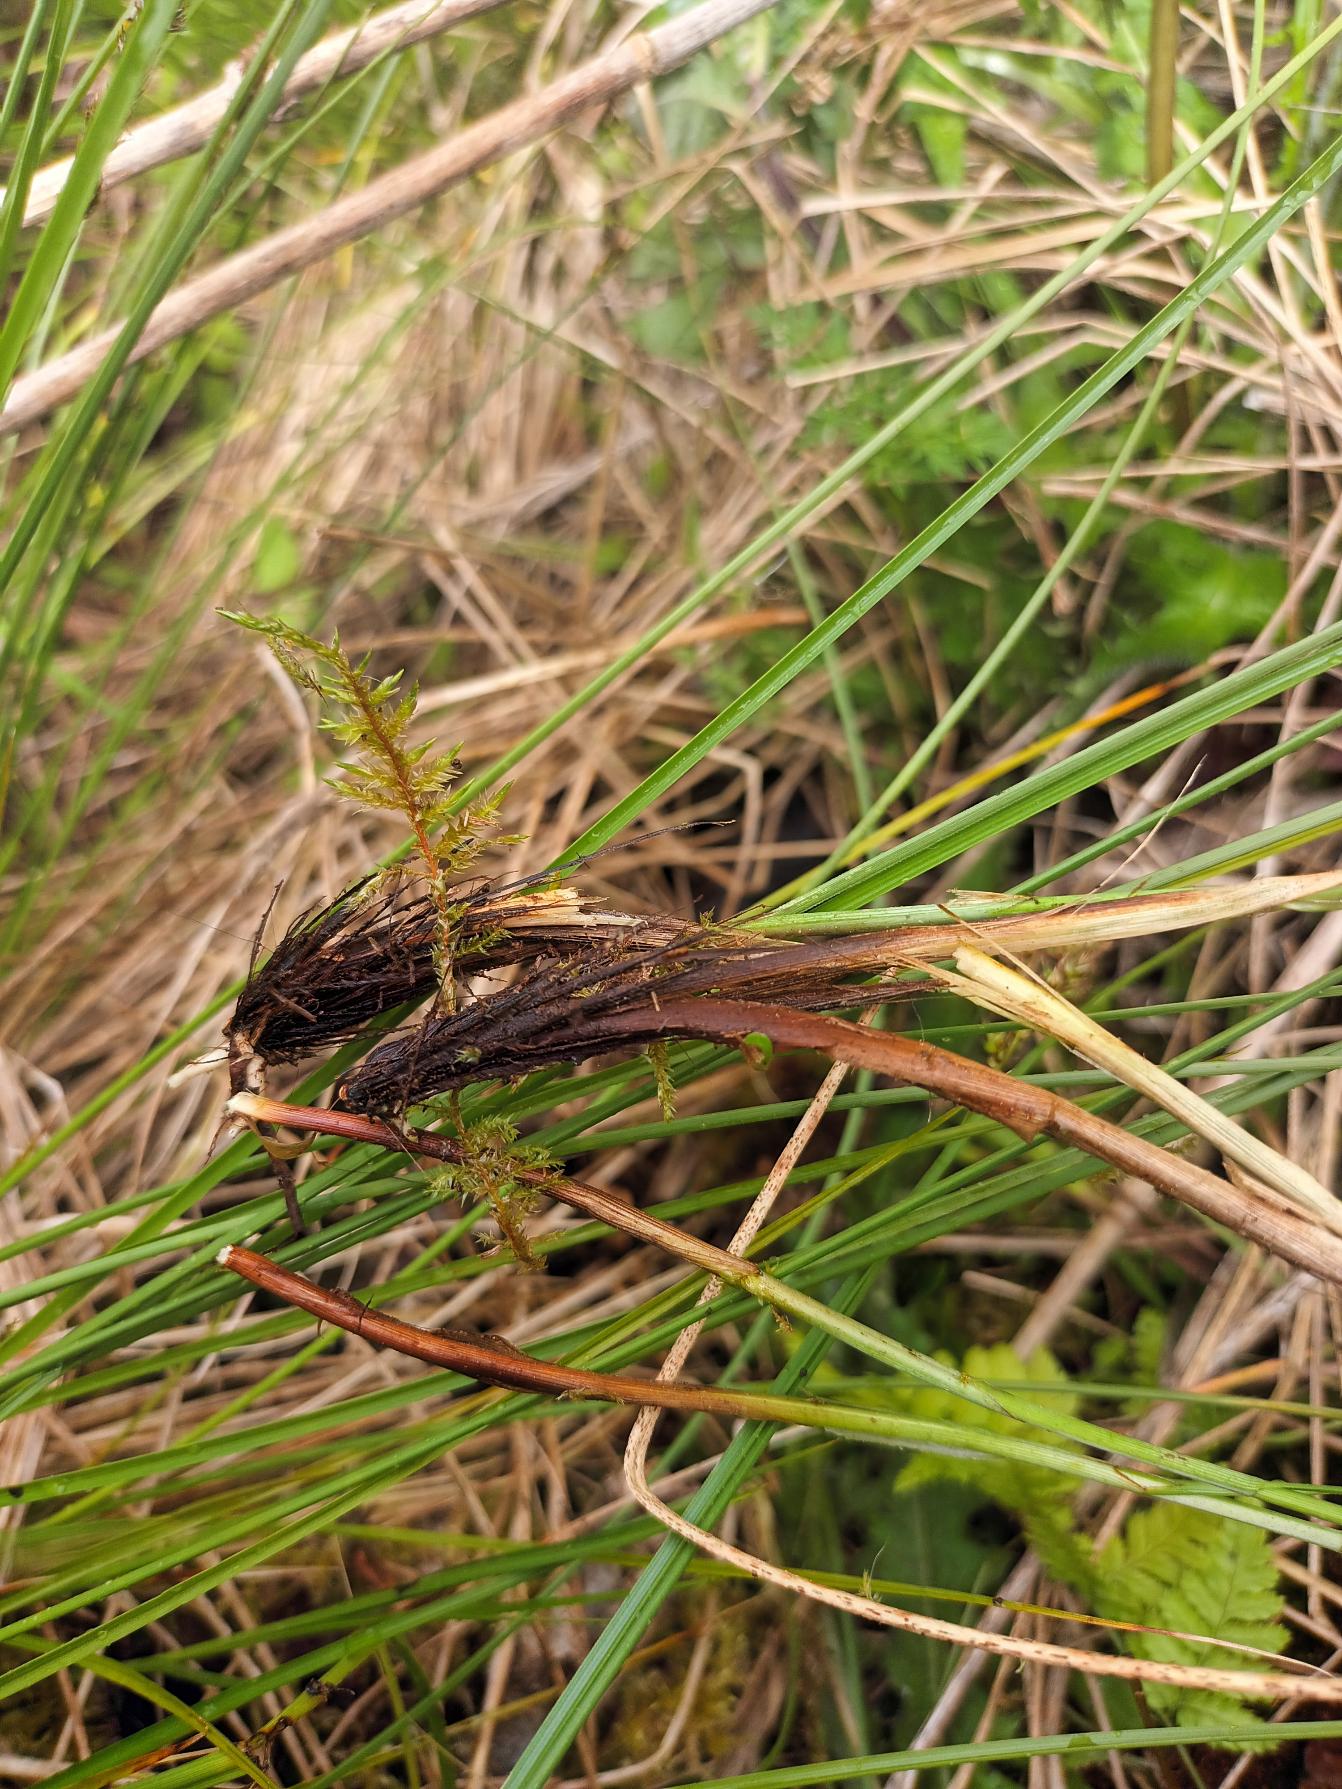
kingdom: Plantae
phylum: Tracheophyta
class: Liliopsida
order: Poales
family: Cyperaceae
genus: Carex
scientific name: Carex appropinquata
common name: Langakset star
